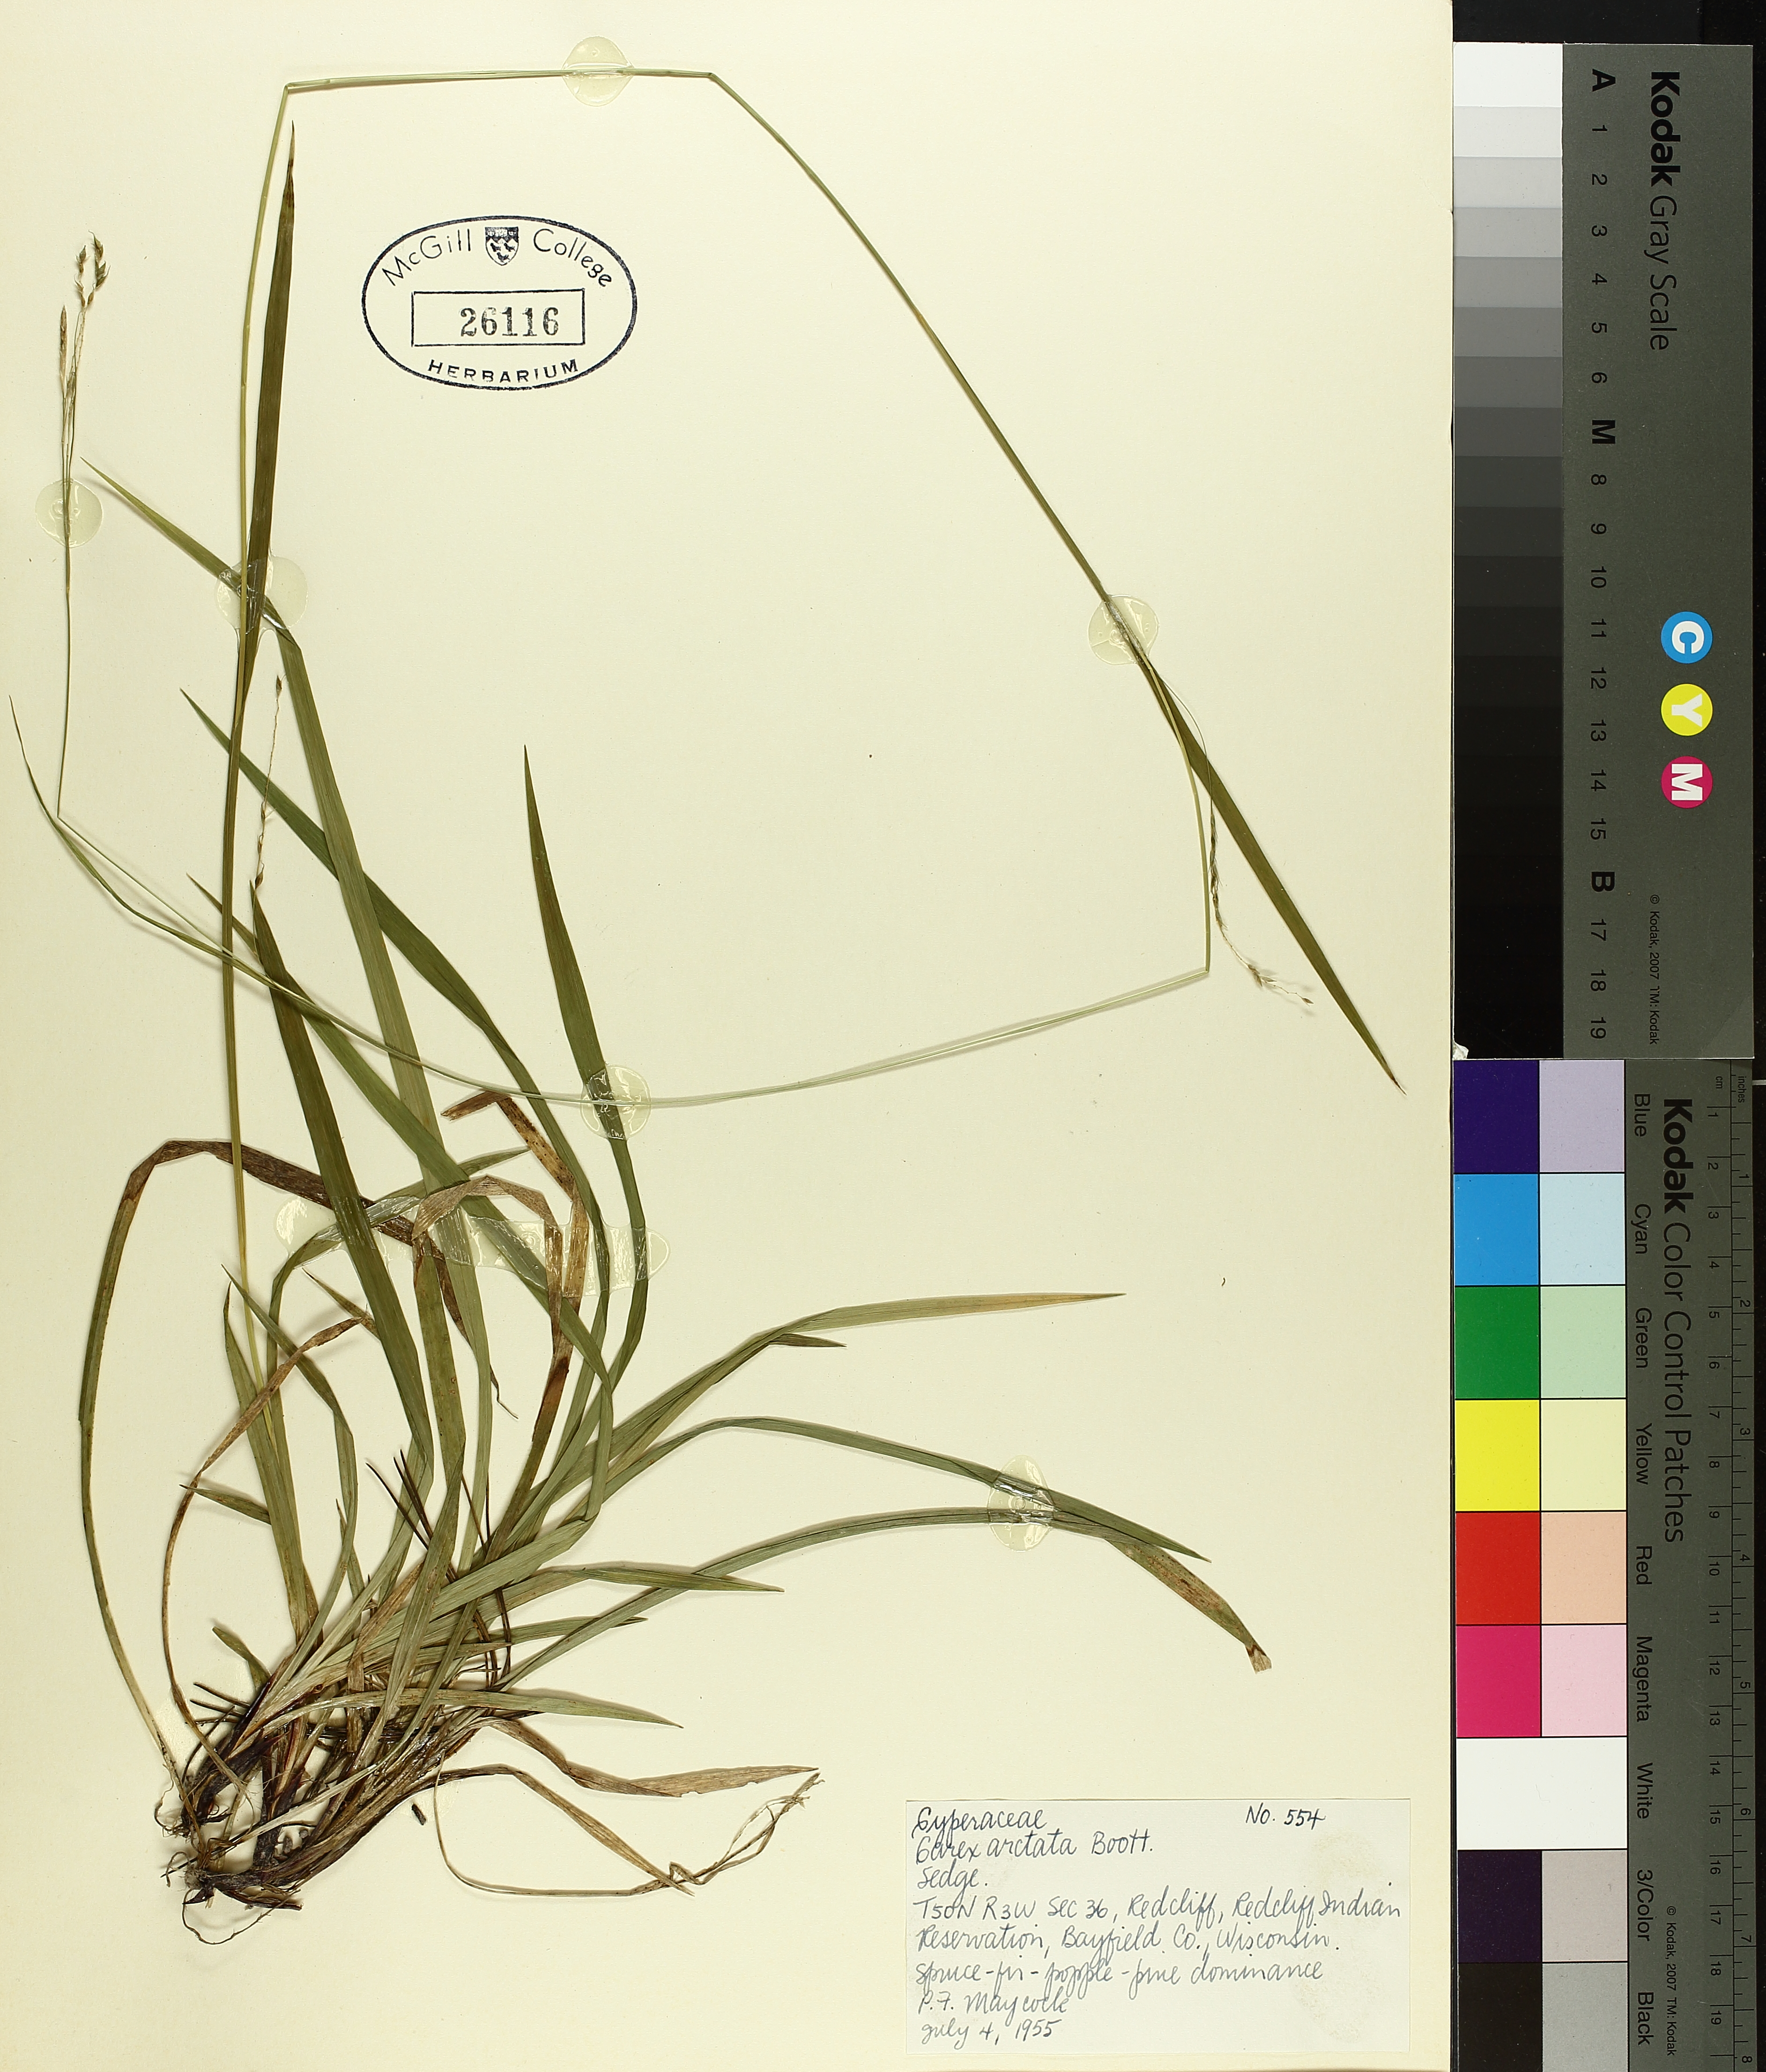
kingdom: Plantae
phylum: Tracheophyta
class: Liliopsida
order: Poales
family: Cyperaceae
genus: Carex
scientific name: Carex arctata
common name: Black sedge
